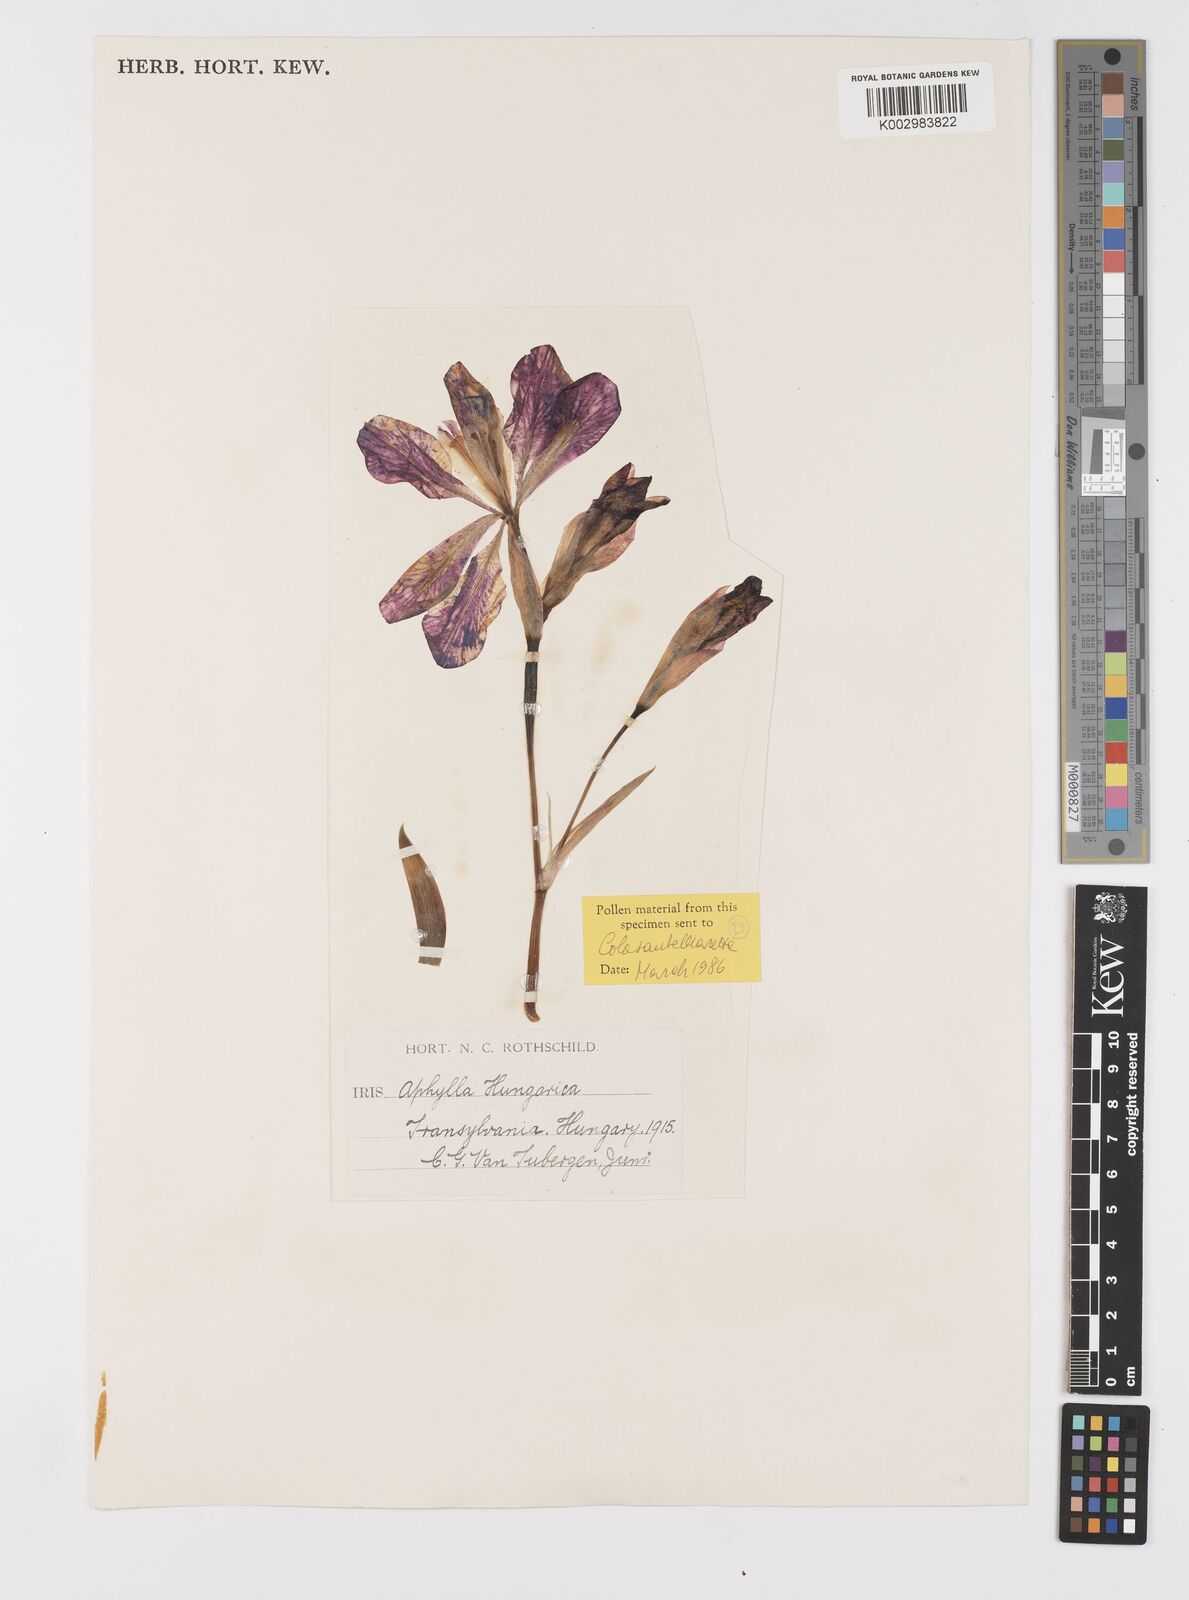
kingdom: Plantae
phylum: Tracheophyta
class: Liliopsida
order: Asparagales
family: Iridaceae
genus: Iris
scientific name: Iris aphylla
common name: Stool iris
